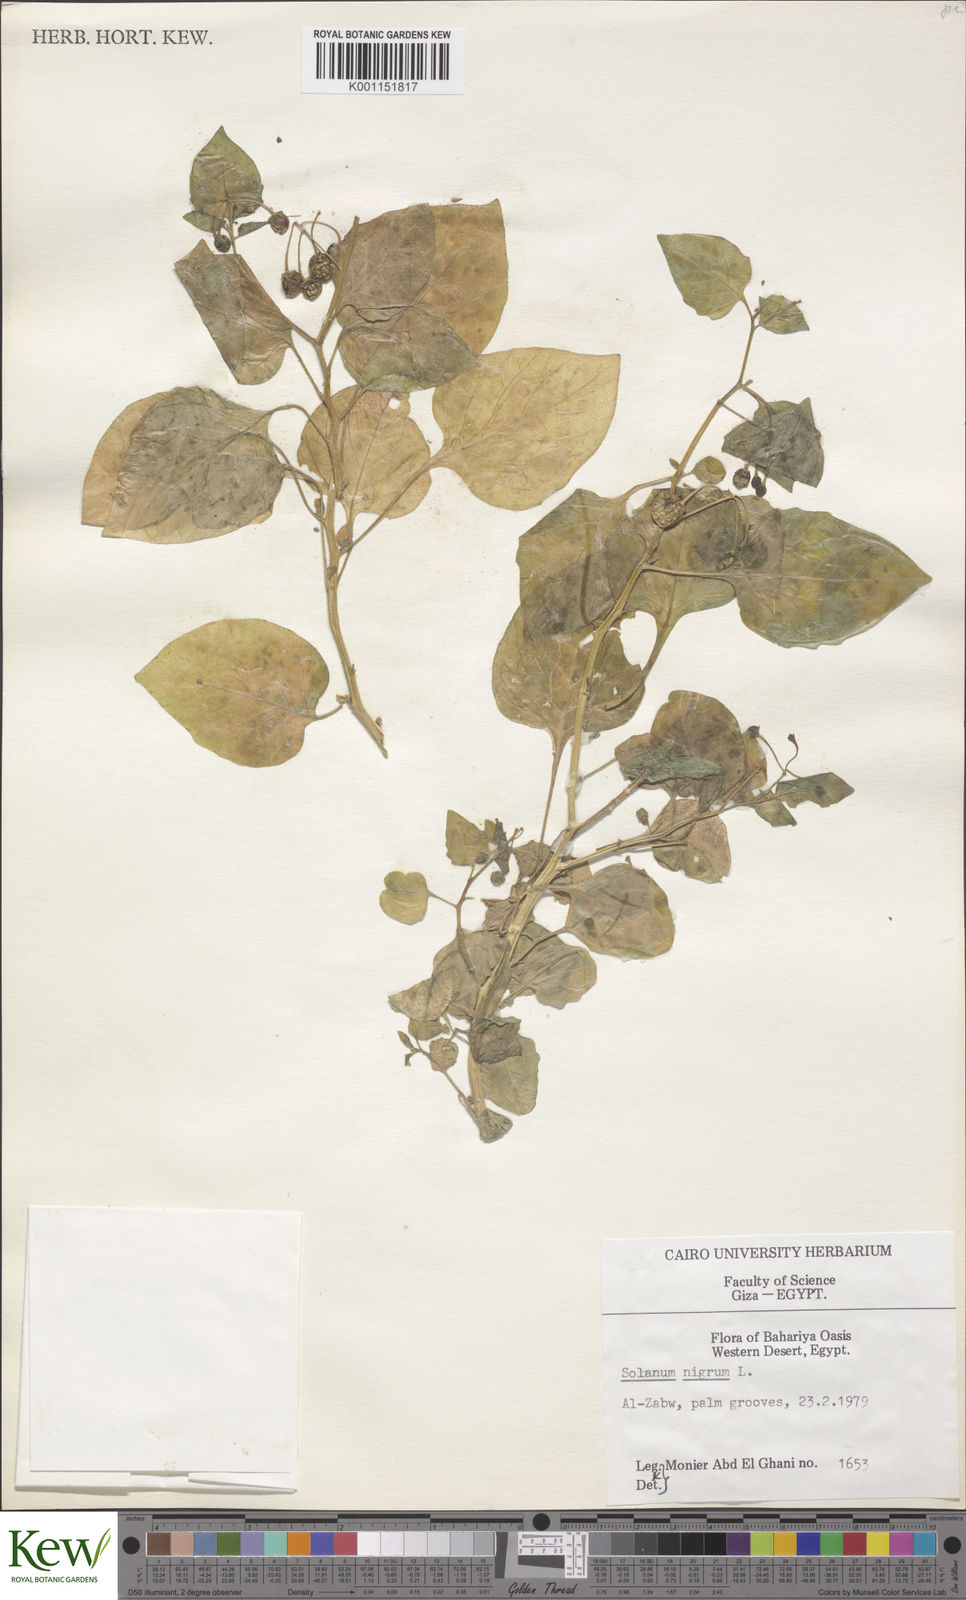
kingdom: Plantae
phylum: Tracheophyta
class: Magnoliopsida
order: Solanales
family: Solanaceae
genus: Solanum
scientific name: Solanum nigrum
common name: Black nightshade
